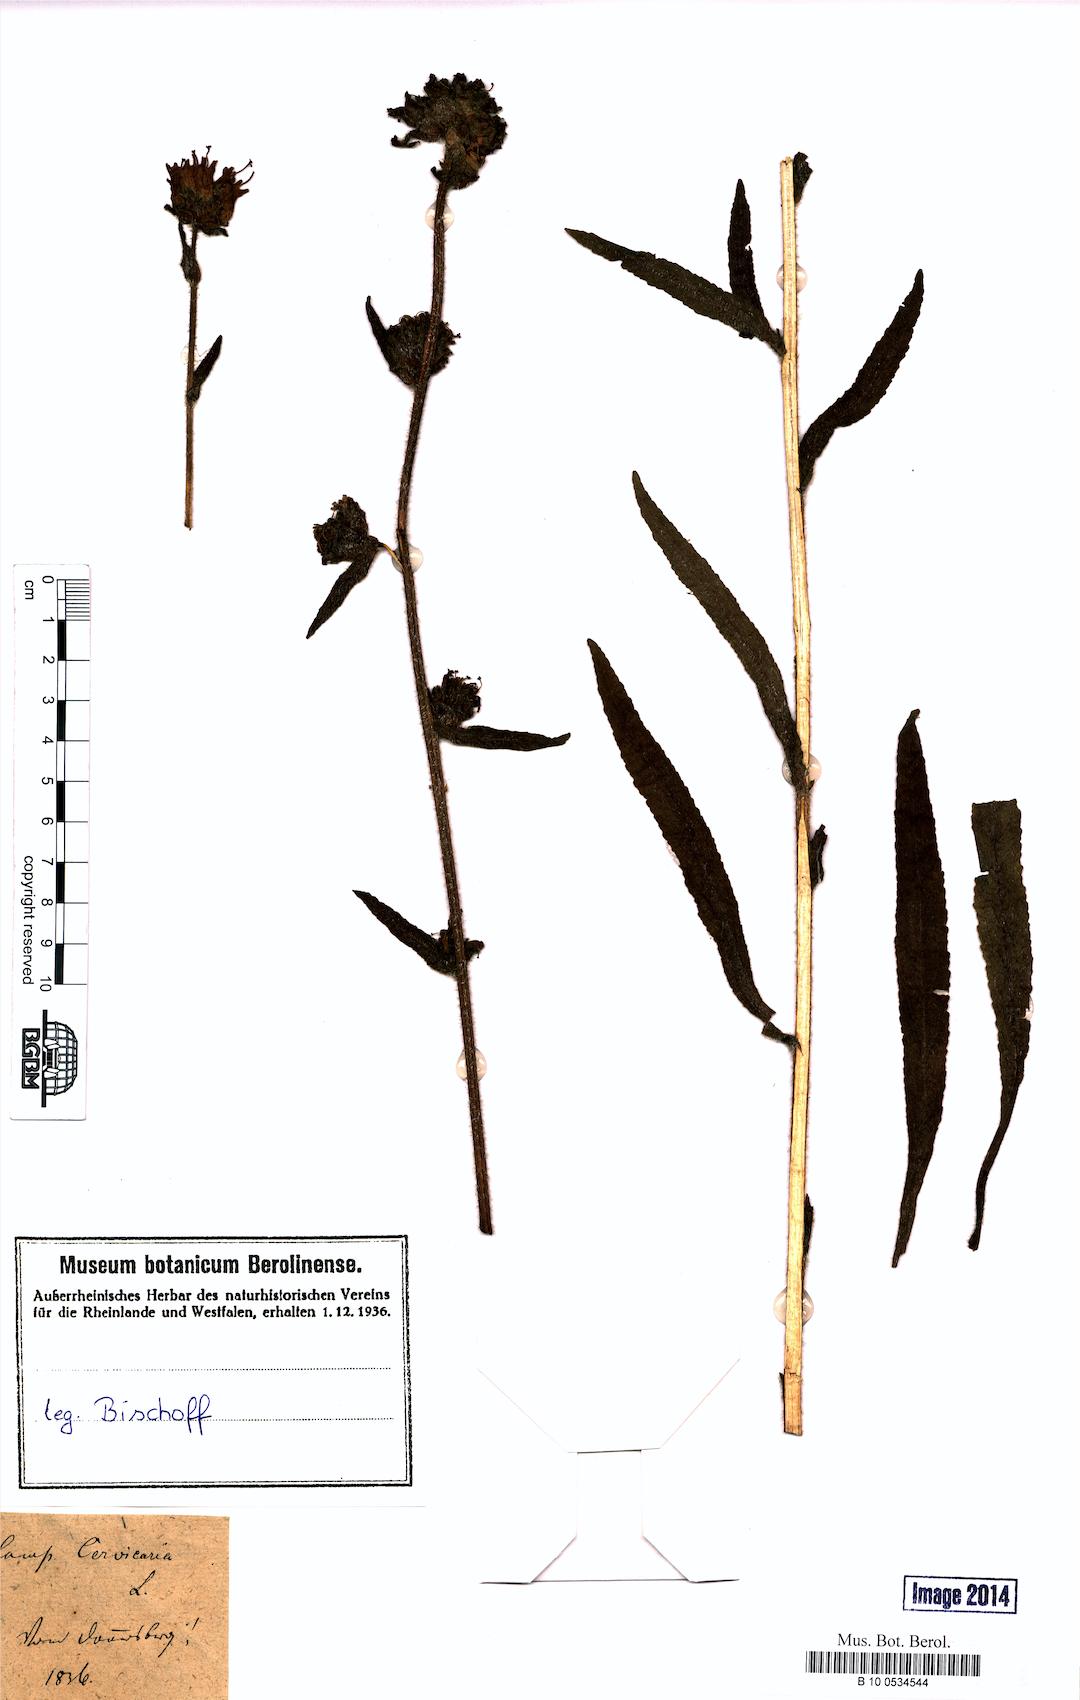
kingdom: Plantae
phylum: Tracheophyta
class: Magnoliopsida
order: Asterales
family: Campanulaceae
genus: Campanula
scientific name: Campanula cervicaria
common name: Bristly bellflower
